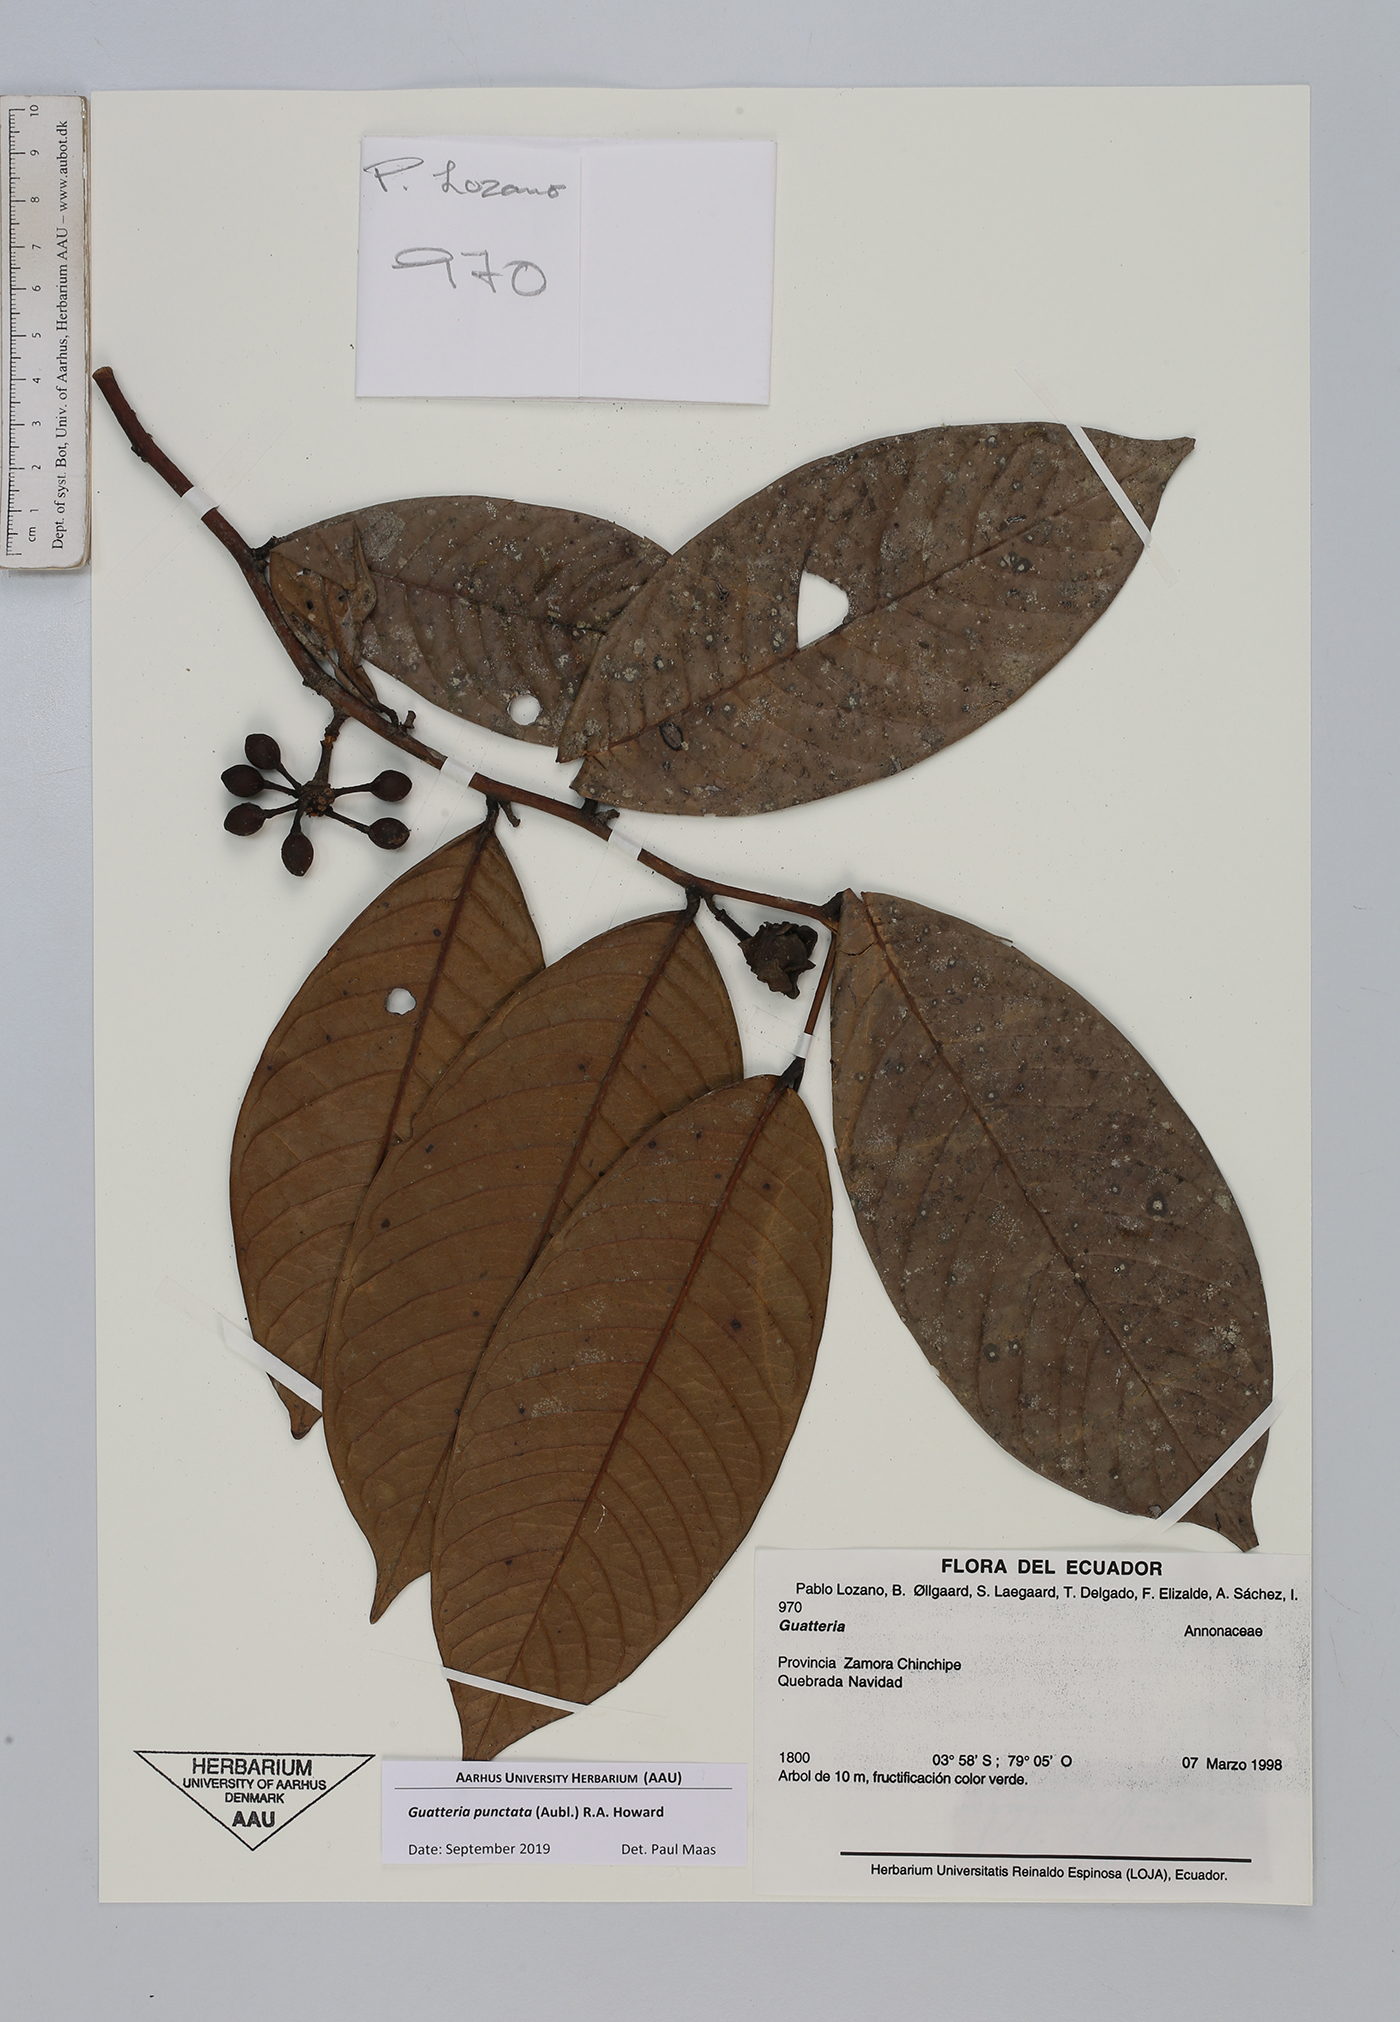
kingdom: Plantae
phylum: Tracheophyta
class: Magnoliopsida
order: Magnoliales
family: Annonaceae
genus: Guatteria
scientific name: Guatteria punctata
